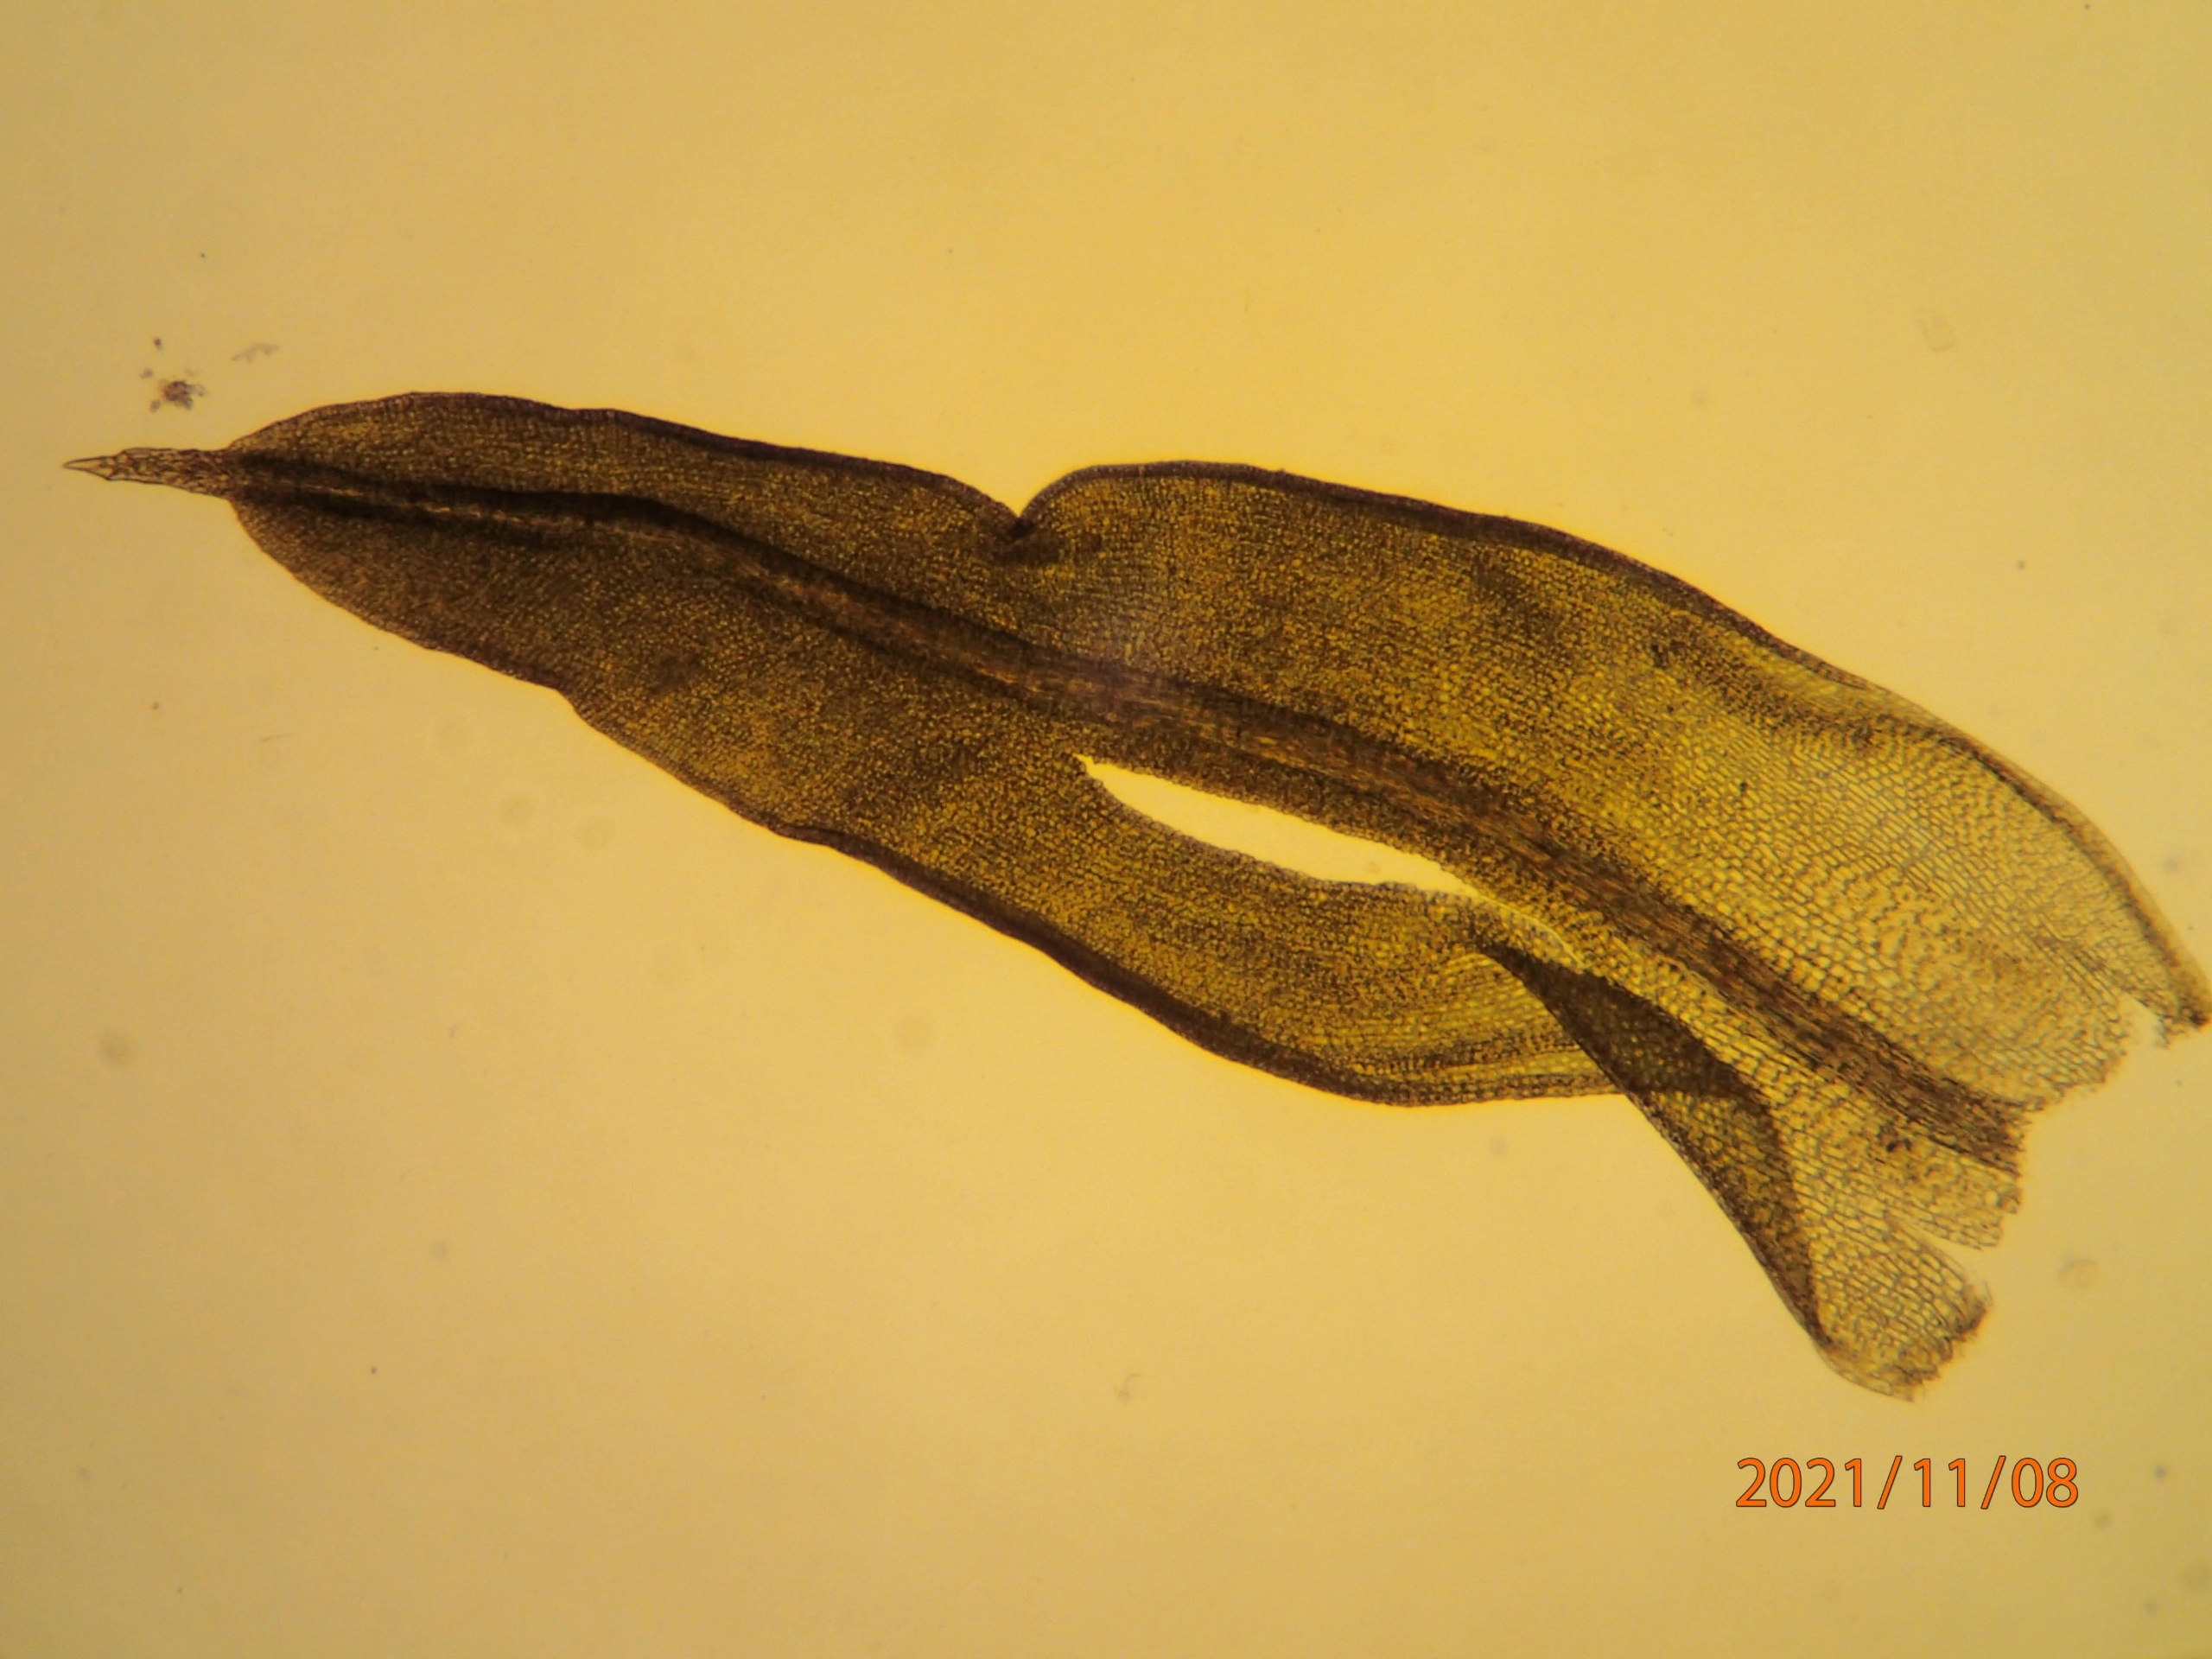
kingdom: Plantae
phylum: Bryophyta
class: Bryopsida
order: Pottiales
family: Pottiaceae
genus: Barbula
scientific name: Barbula unguiculata
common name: Almindelig skægtand
